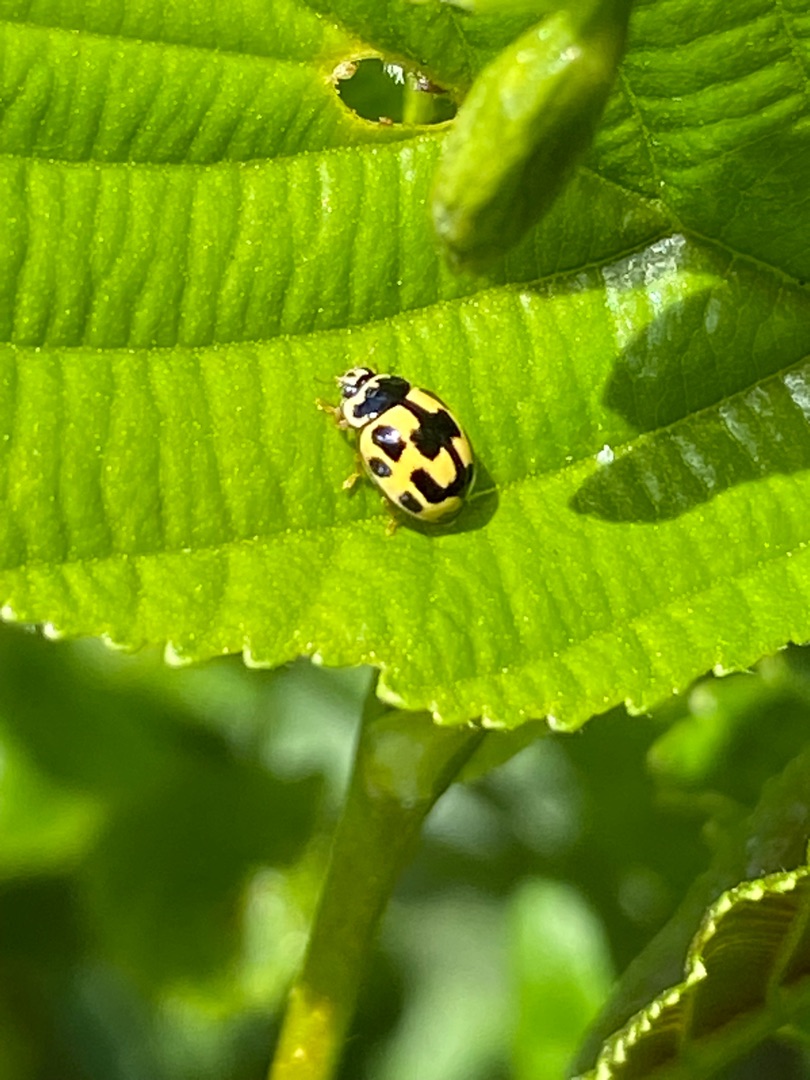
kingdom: Animalia
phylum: Arthropoda
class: Insecta
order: Coleoptera
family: Coccinellidae
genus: Propylaea
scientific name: Propylaea quatuordecimpunctata
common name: Skakbræt
